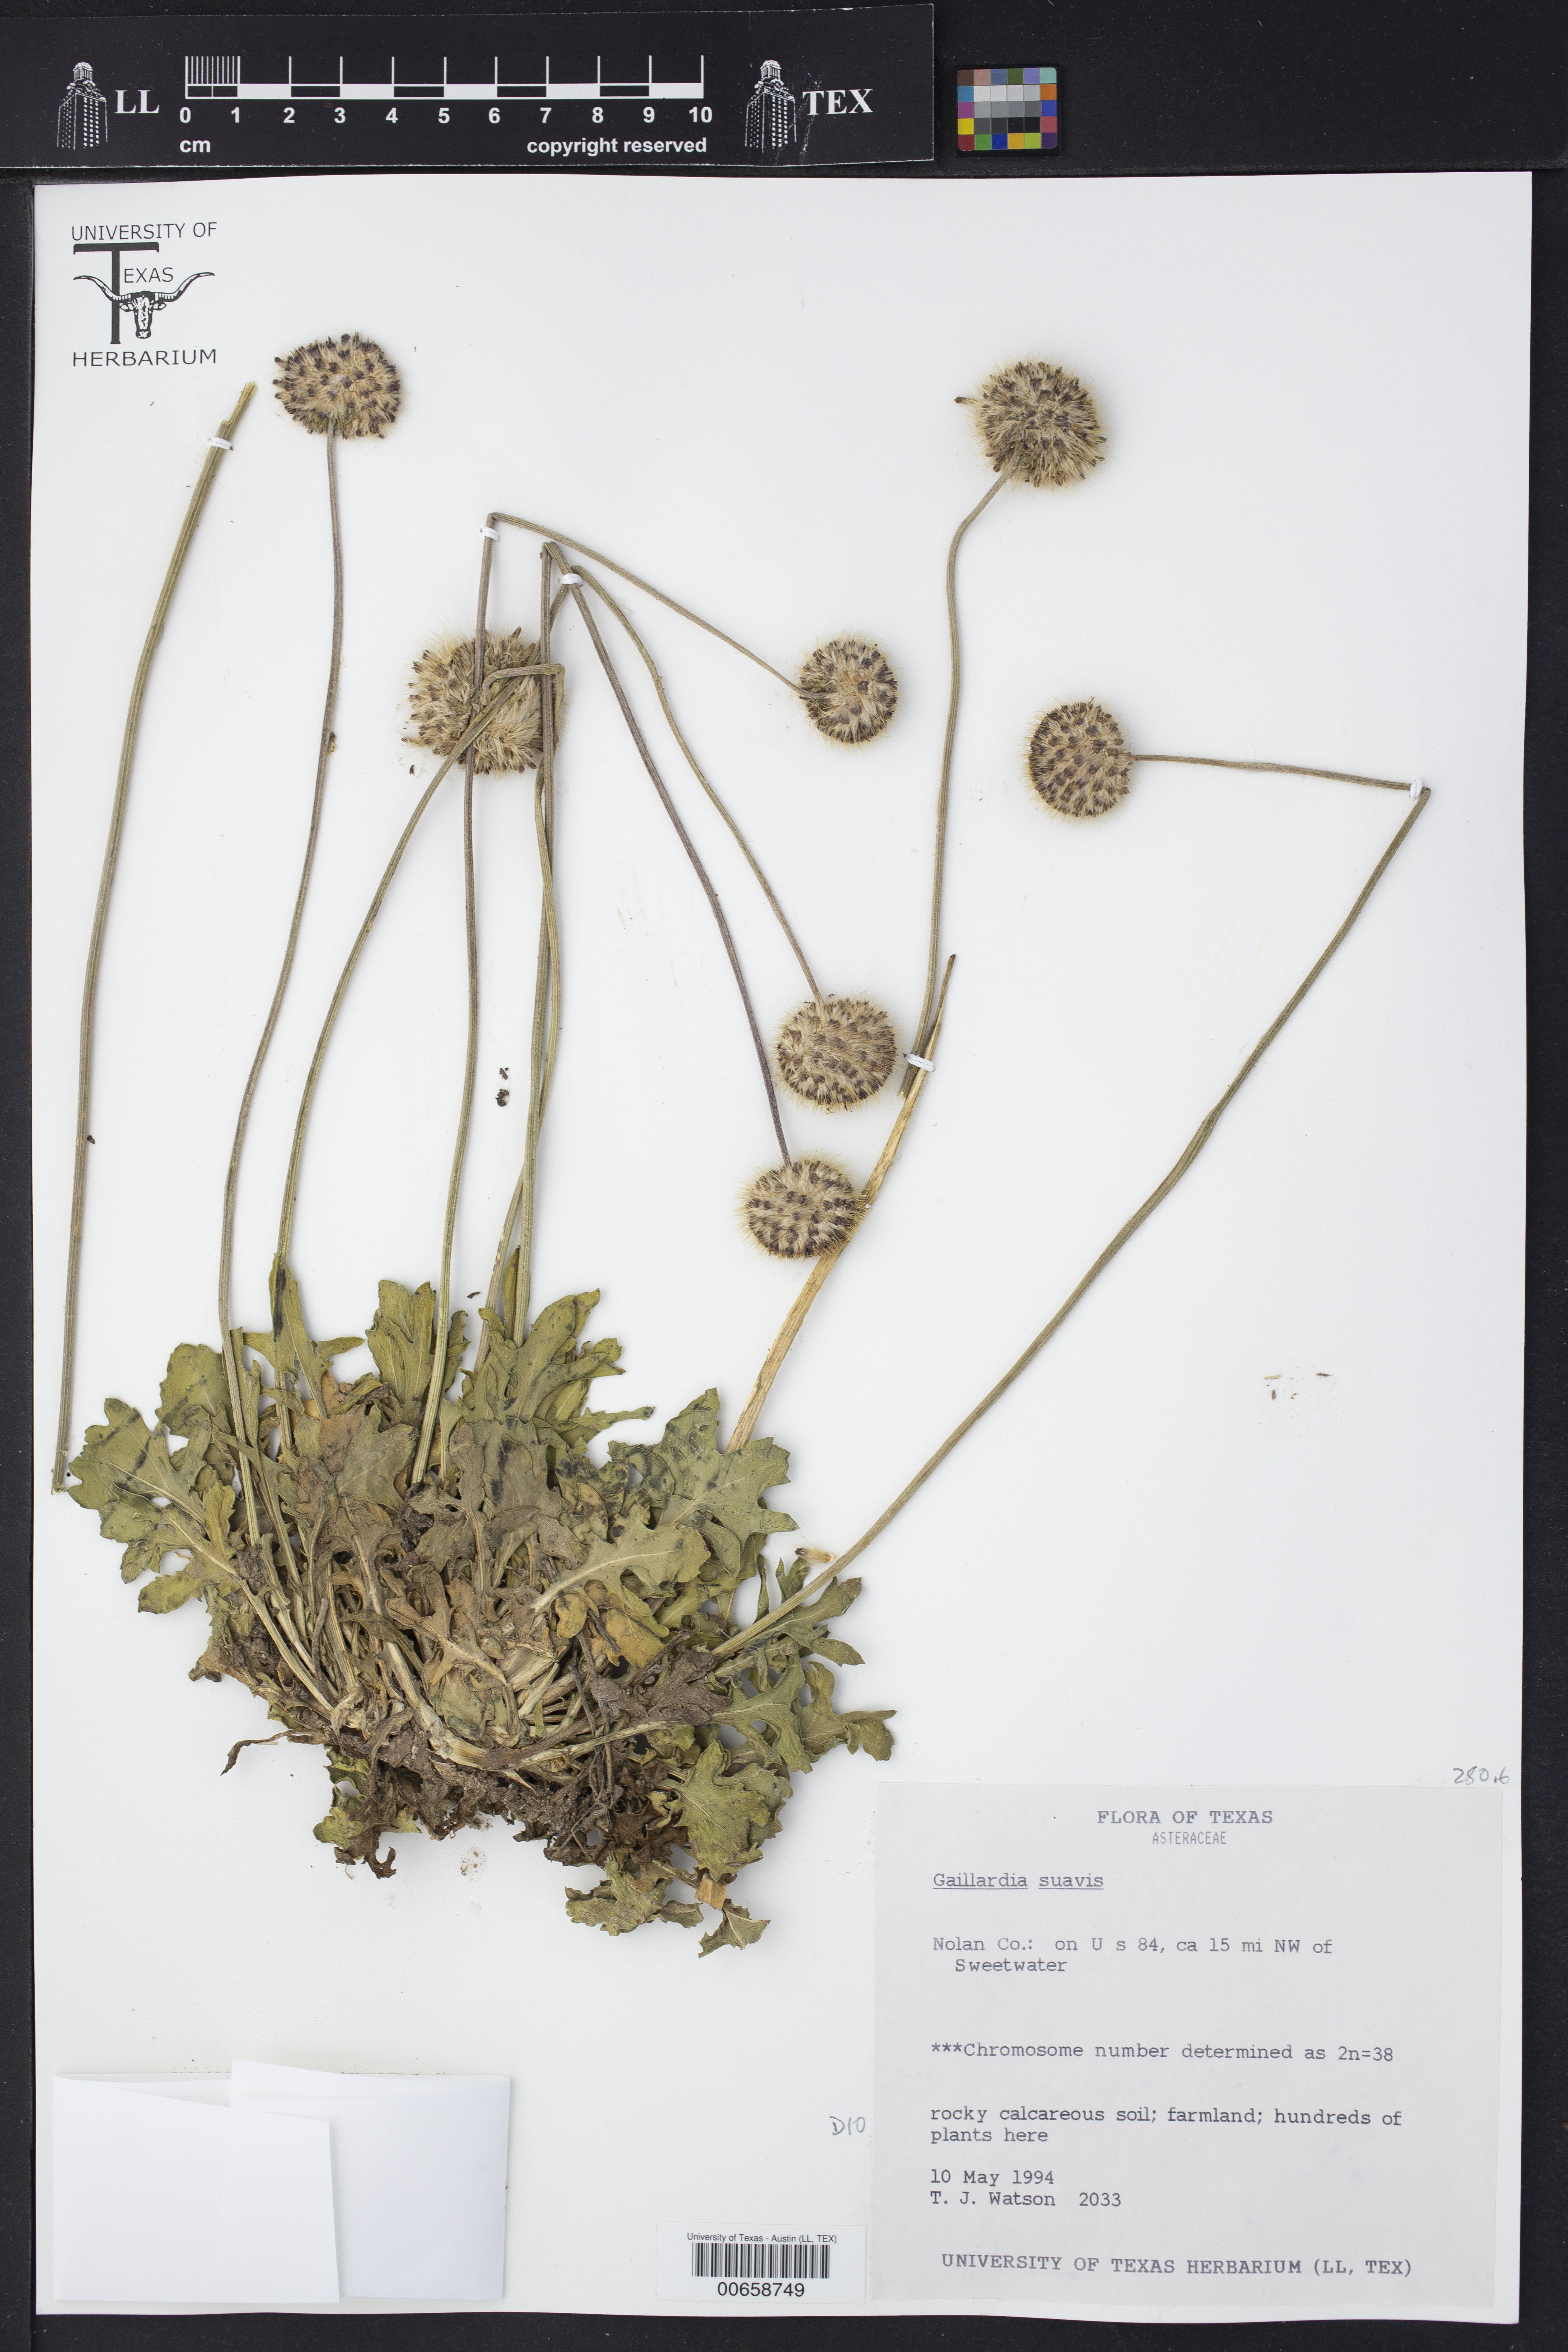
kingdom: Plantae
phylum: Tracheophyta
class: Magnoliopsida
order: Asterales
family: Asteraceae
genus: Gaillardia
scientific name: Gaillardia suavis
